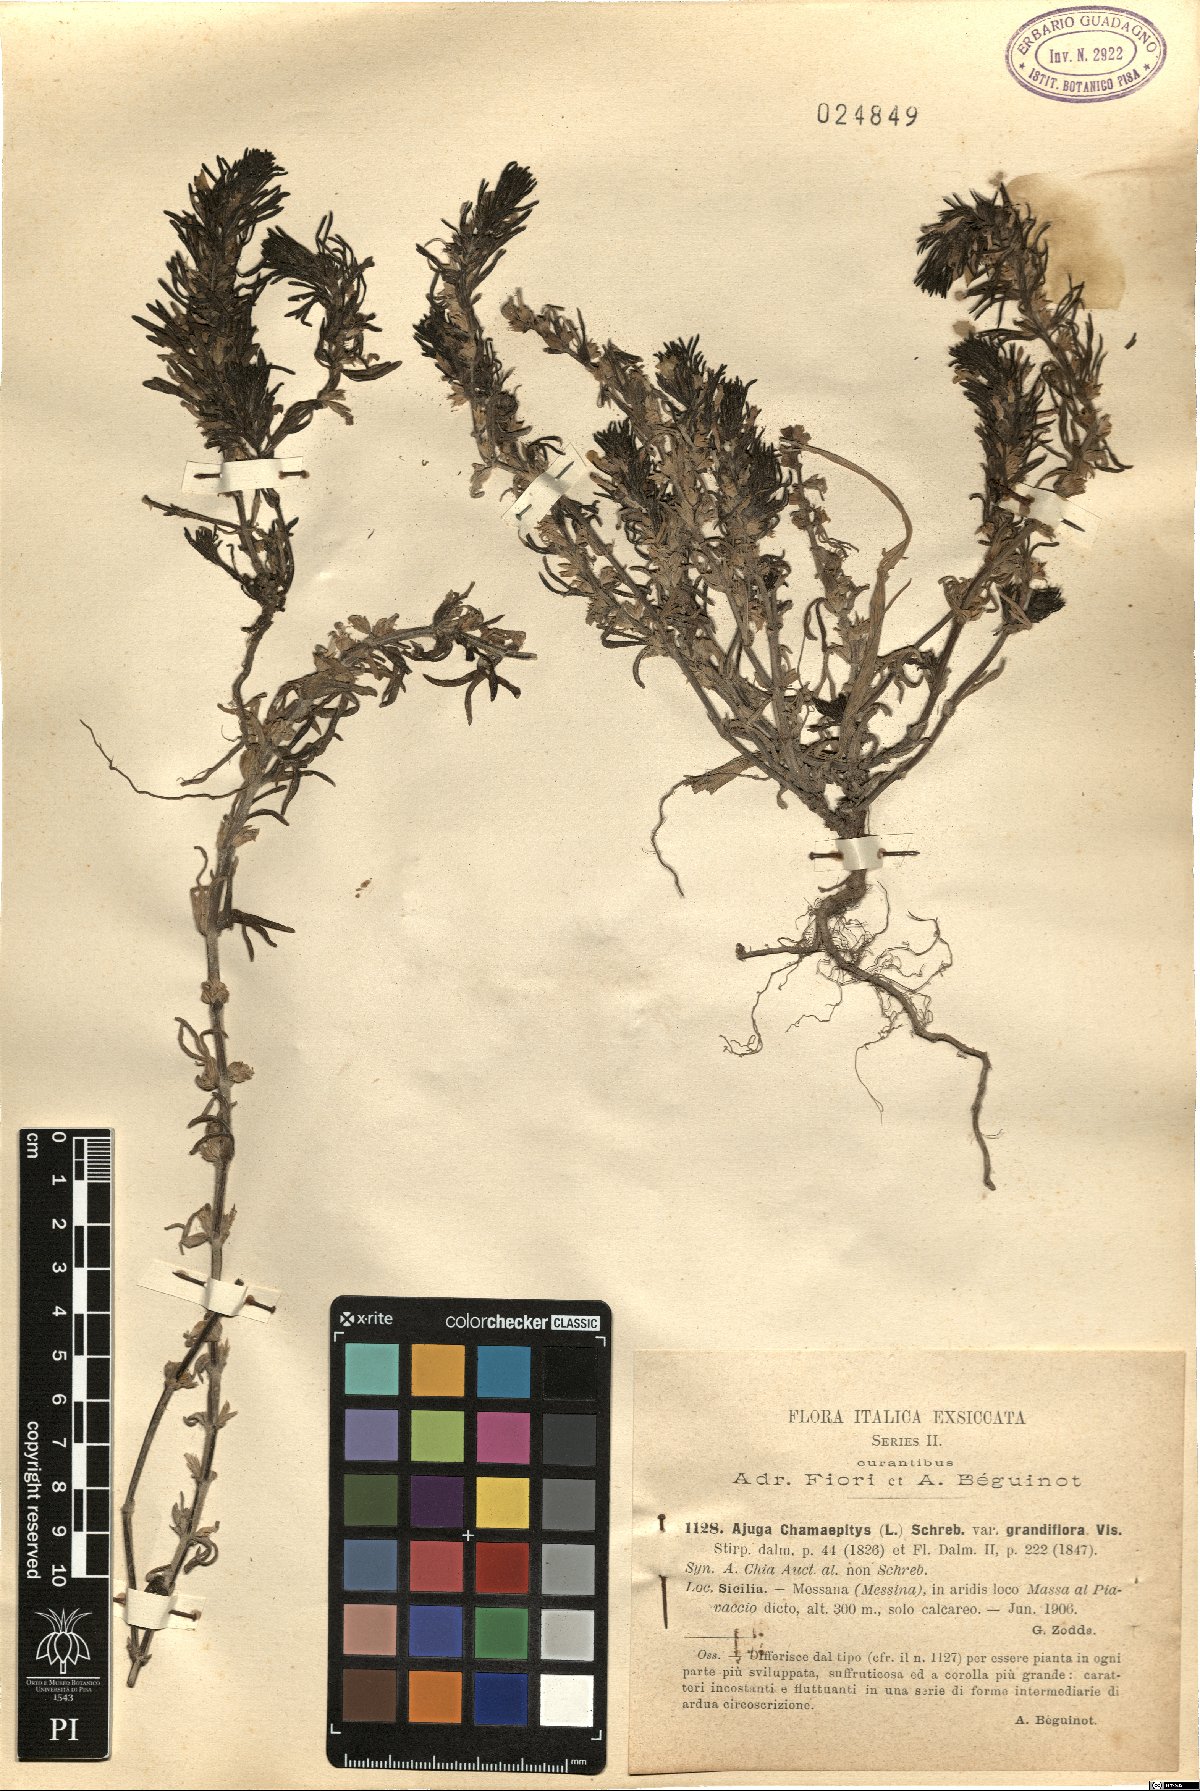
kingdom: Plantae
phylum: Tracheophyta
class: Magnoliopsida
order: Lamiales
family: Lamiaceae
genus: Ajuga
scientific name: Ajuga chamaepitys
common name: Ground-pine
